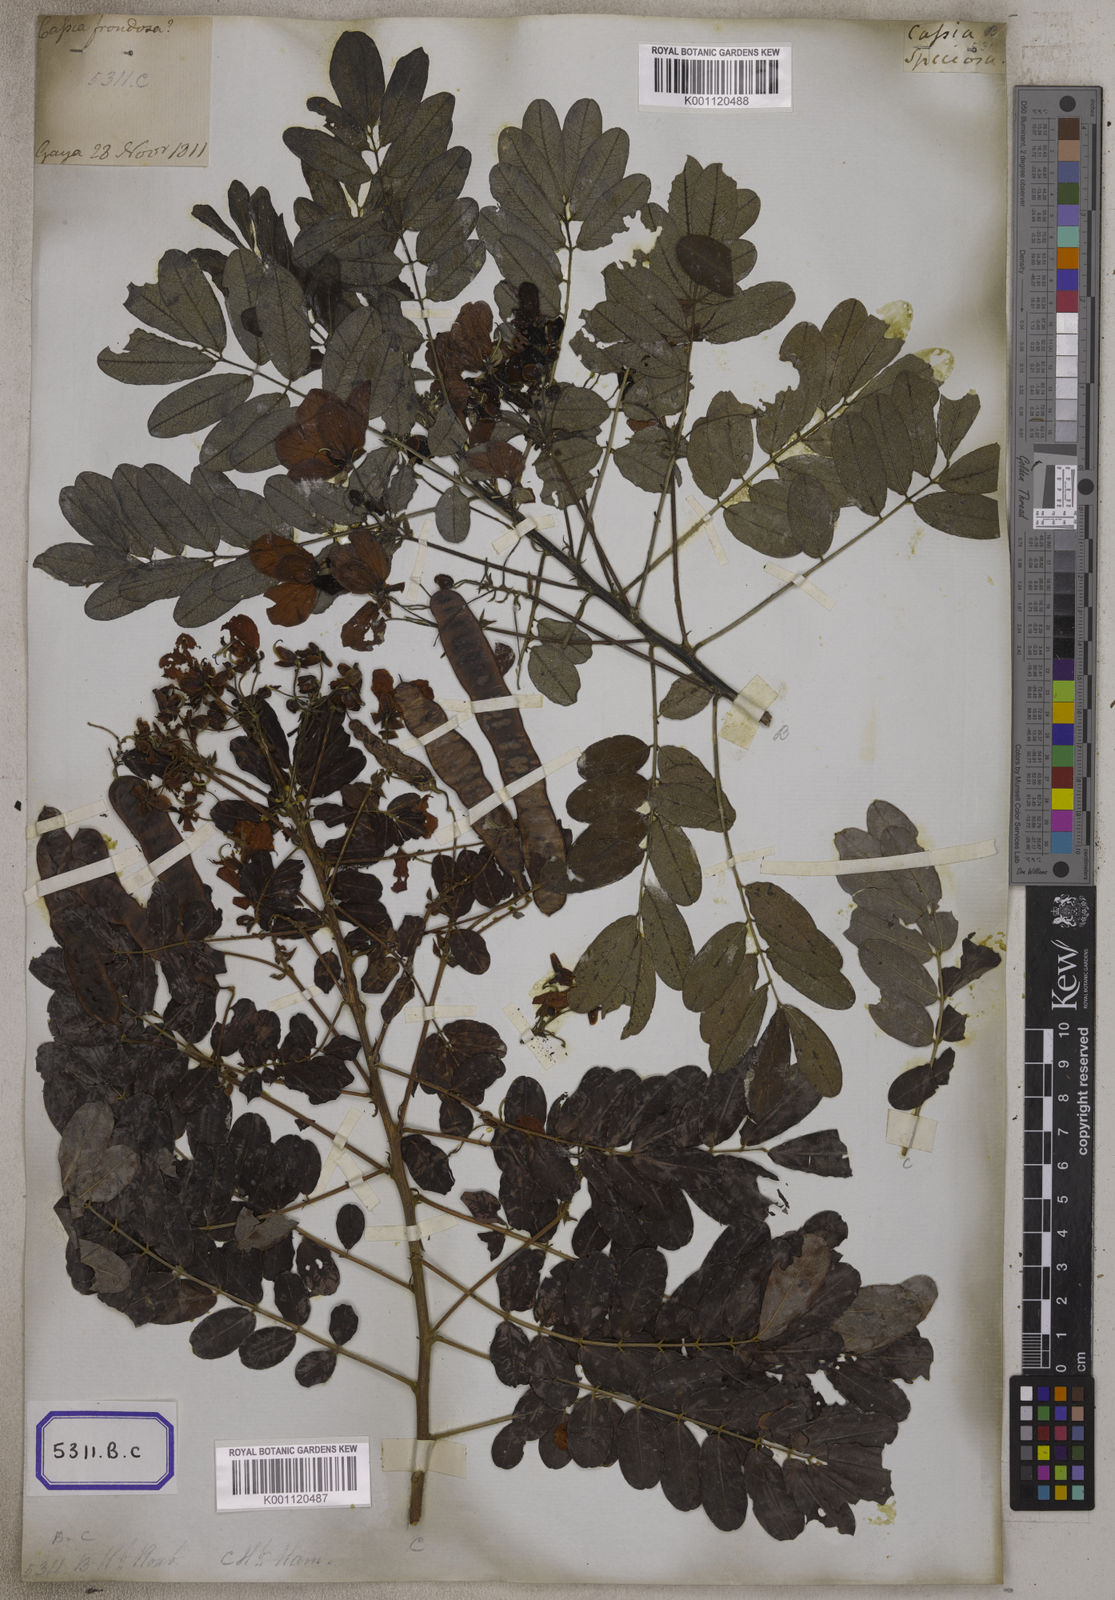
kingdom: Plantae
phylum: Tracheophyta
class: Magnoliopsida
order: Fabales
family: Fabaceae
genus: Senna
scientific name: Senna surattensis
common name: Glossy shower
